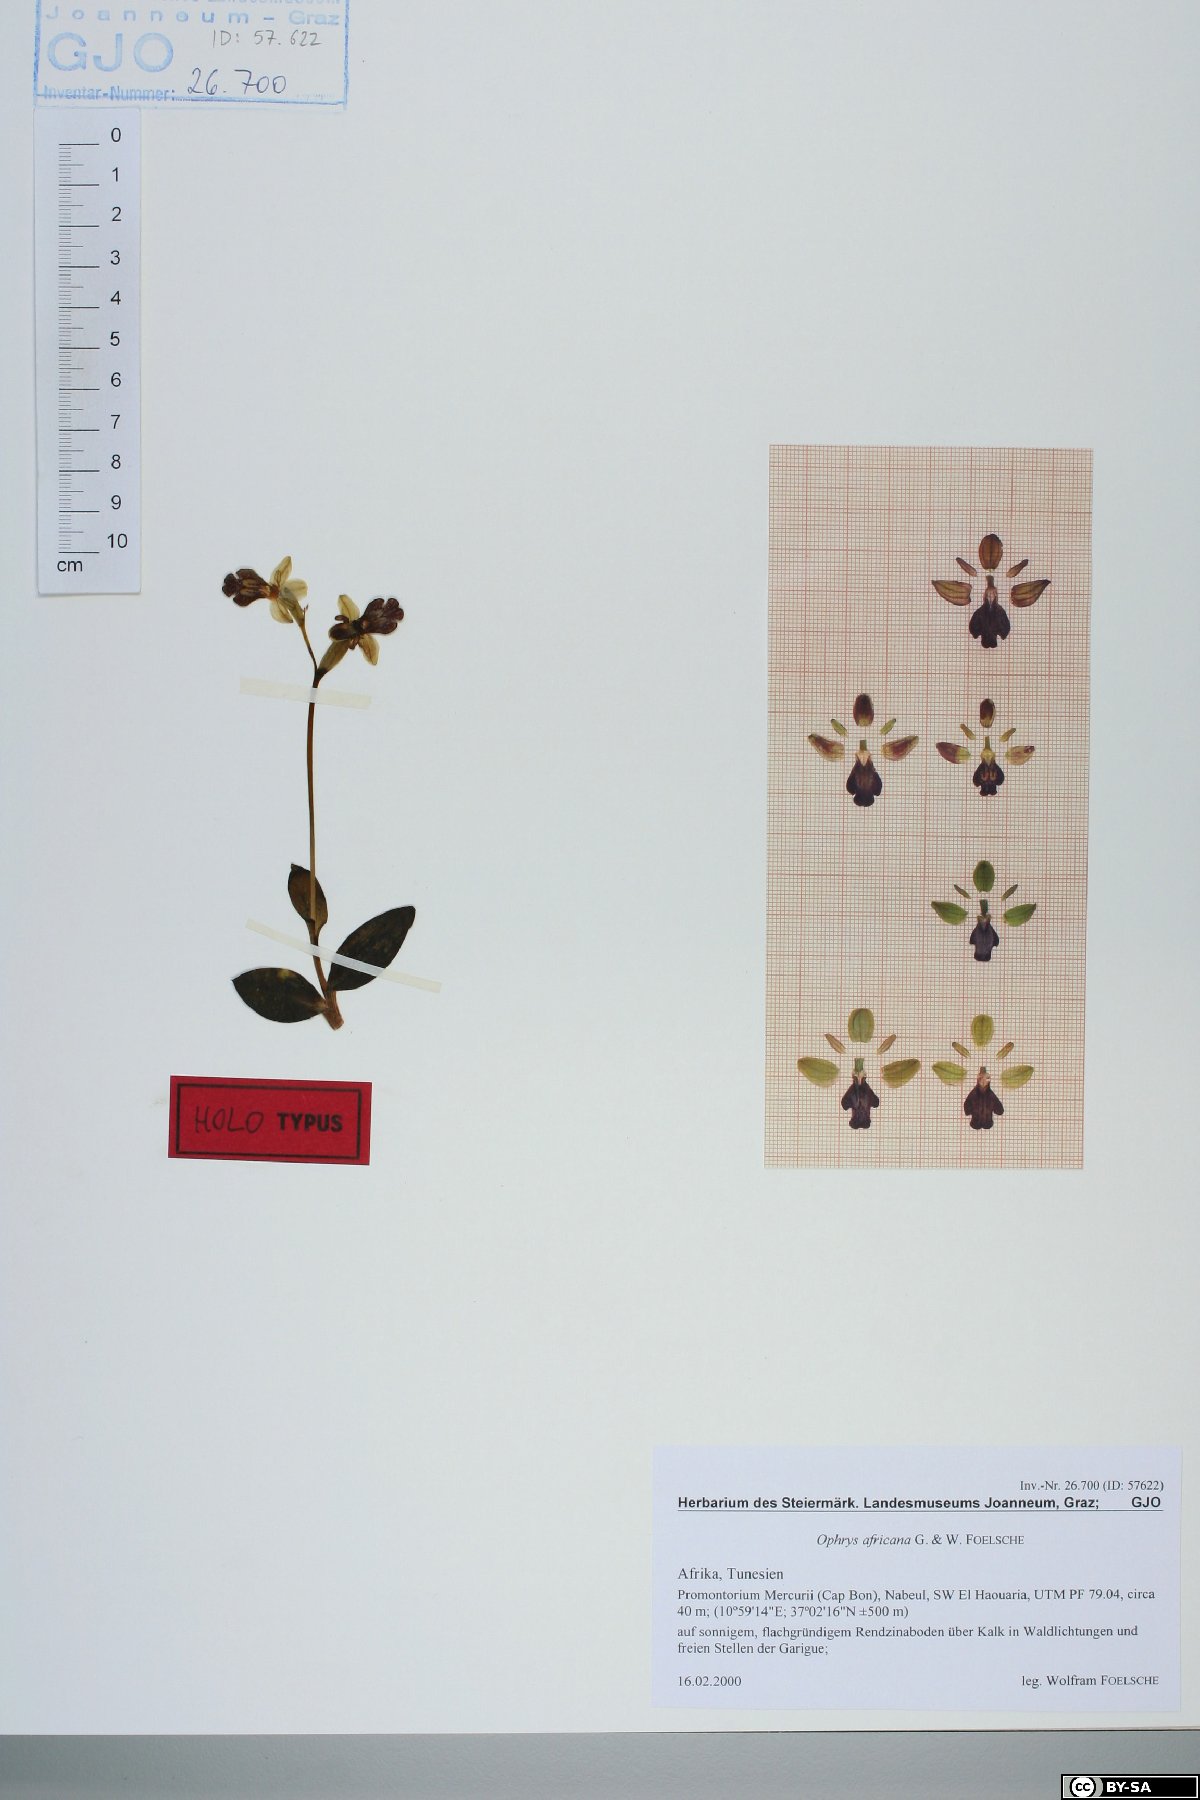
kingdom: Plantae
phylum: Tracheophyta
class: Liliopsida
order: Asparagales
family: Orchidaceae
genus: Ophrys
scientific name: Ophrys fusca
